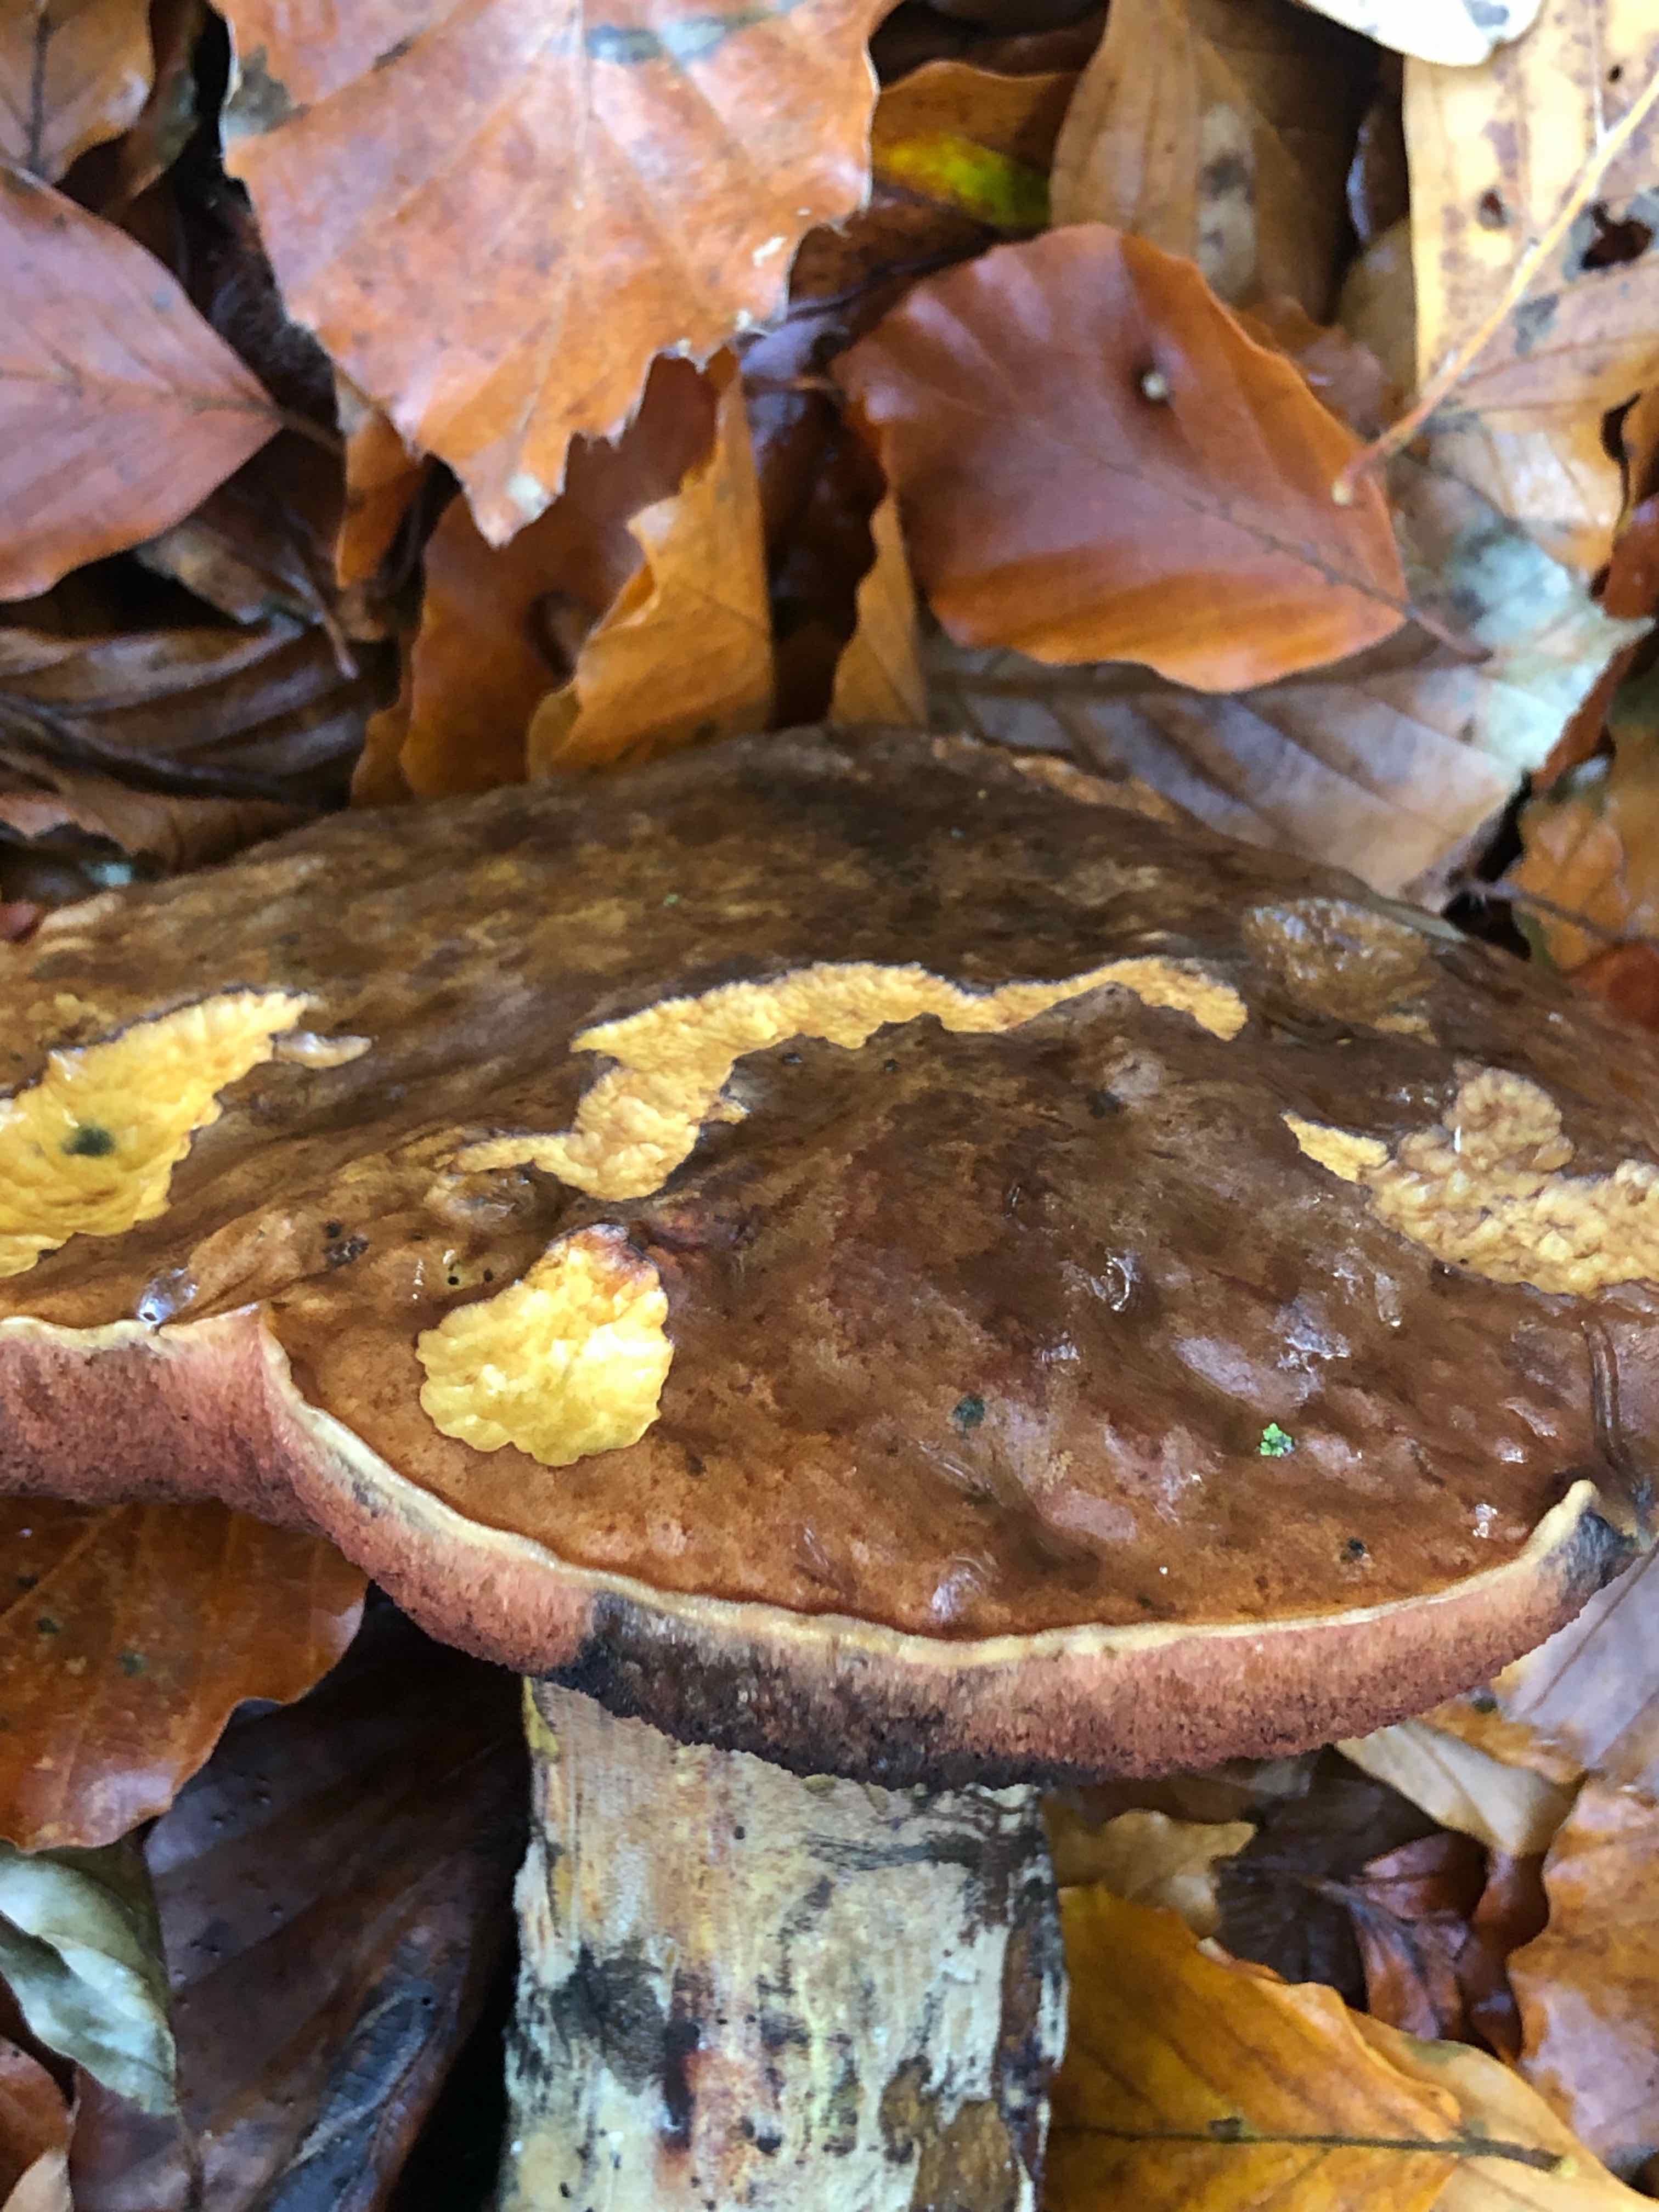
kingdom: Fungi
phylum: Basidiomycota
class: Agaricomycetes
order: Boletales
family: Boletaceae
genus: Neoboletus
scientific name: Neoboletus erythropus
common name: punktstokket indigorørhat
